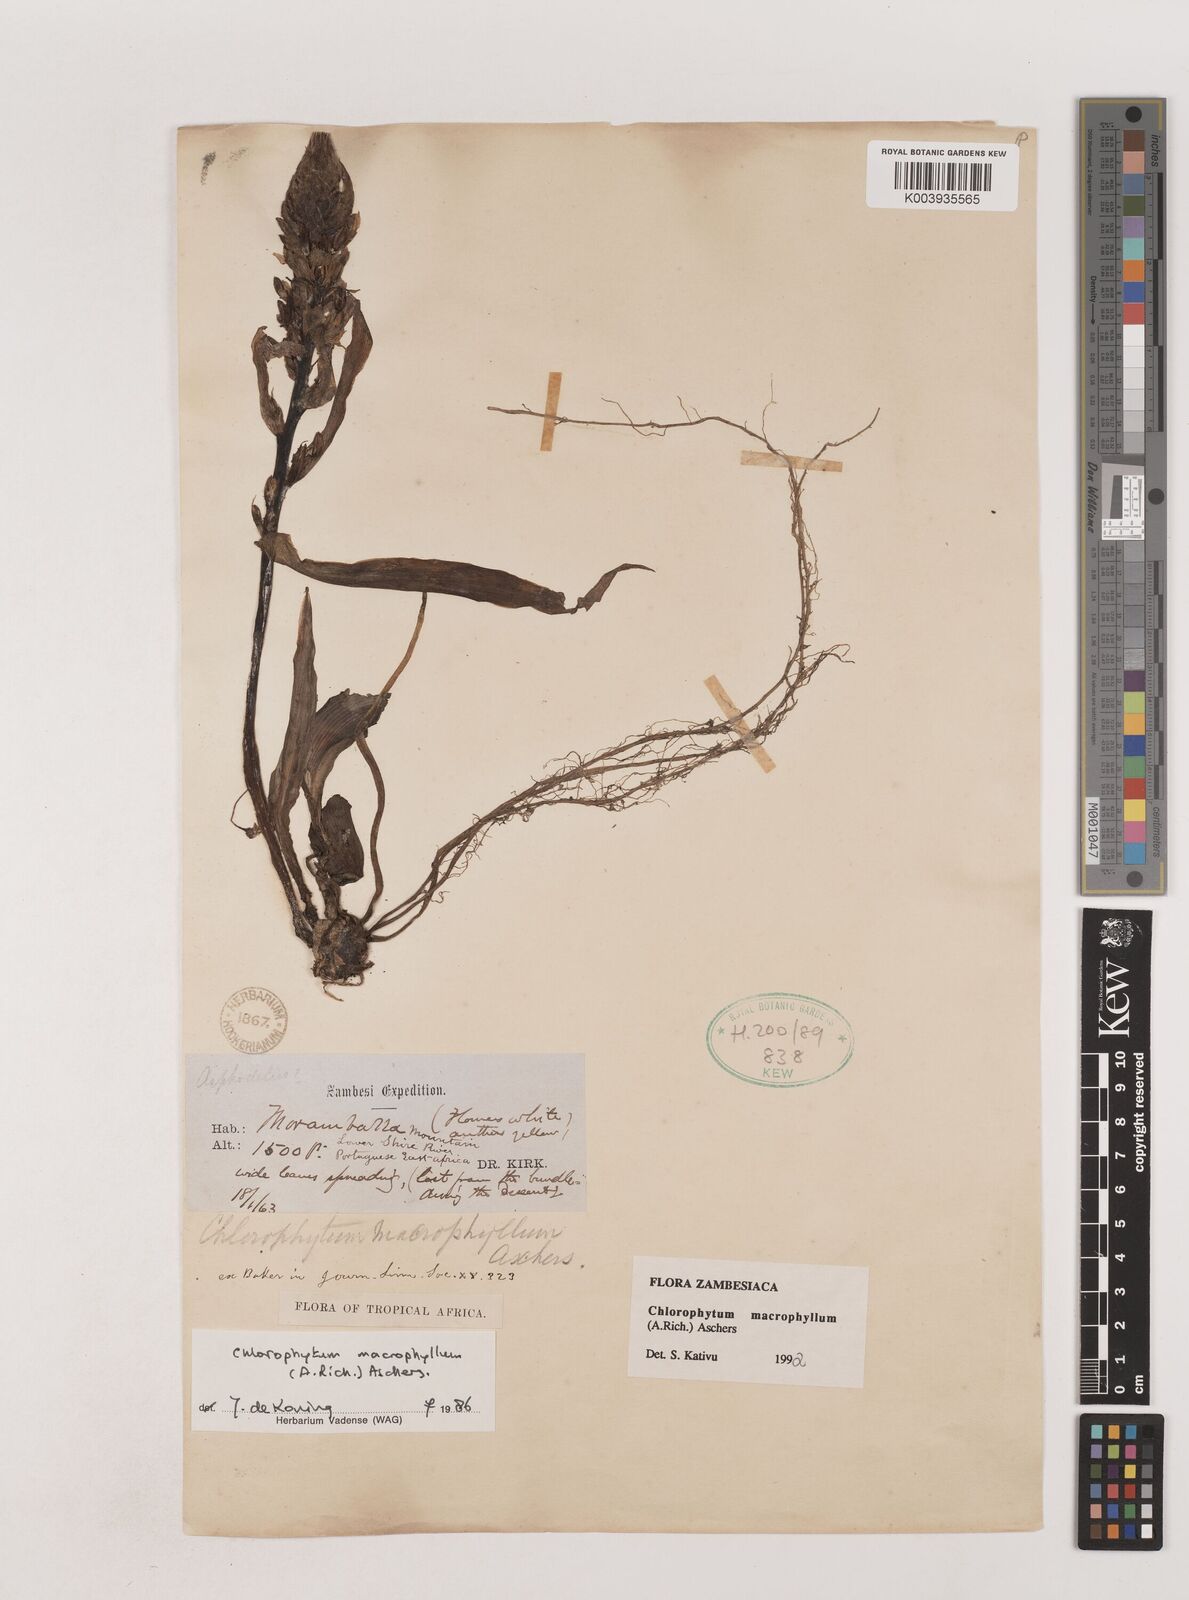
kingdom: Plantae
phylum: Tracheophyta
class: Liliopsida
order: Asparagales
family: Asparagaceae
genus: Chlorophytum
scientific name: Chlorophytum macrophyllum
